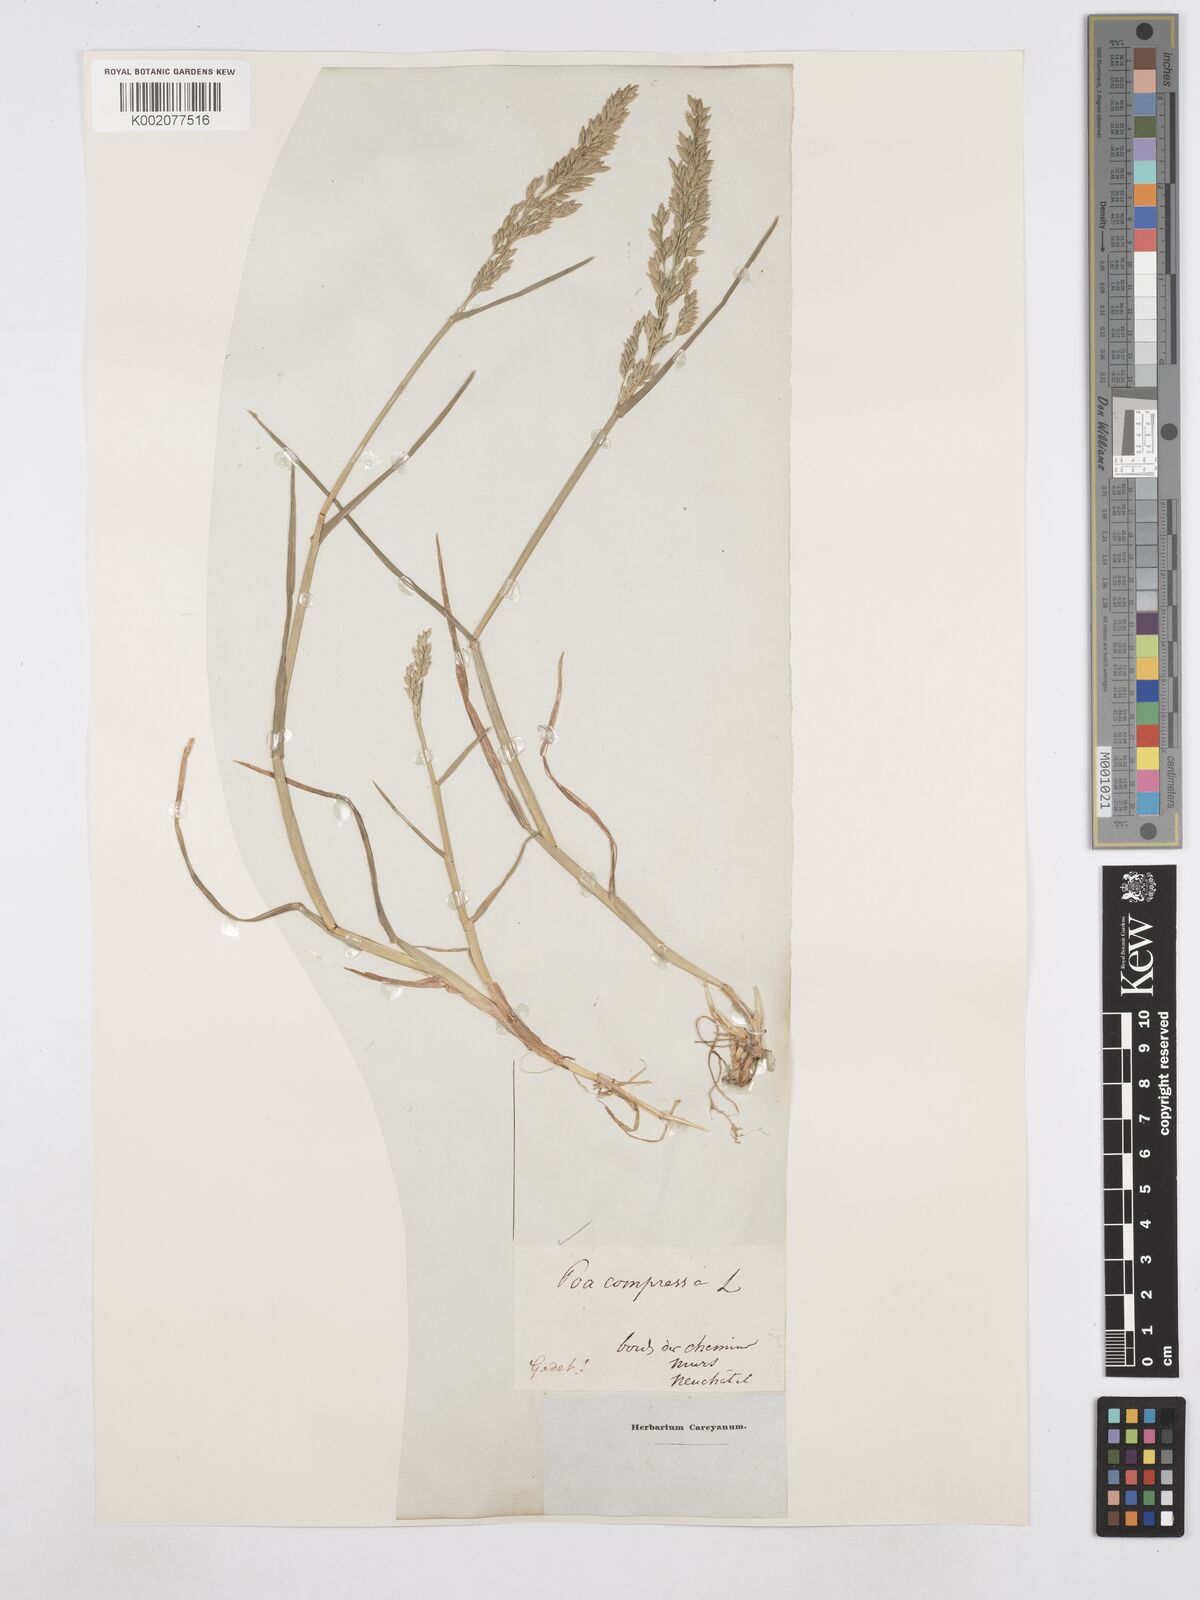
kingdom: Plantae
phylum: Tracheophyta
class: Liliopsida
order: Poales
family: Poaceae
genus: Poa
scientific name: Poa compressa
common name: Canada bluegrass
